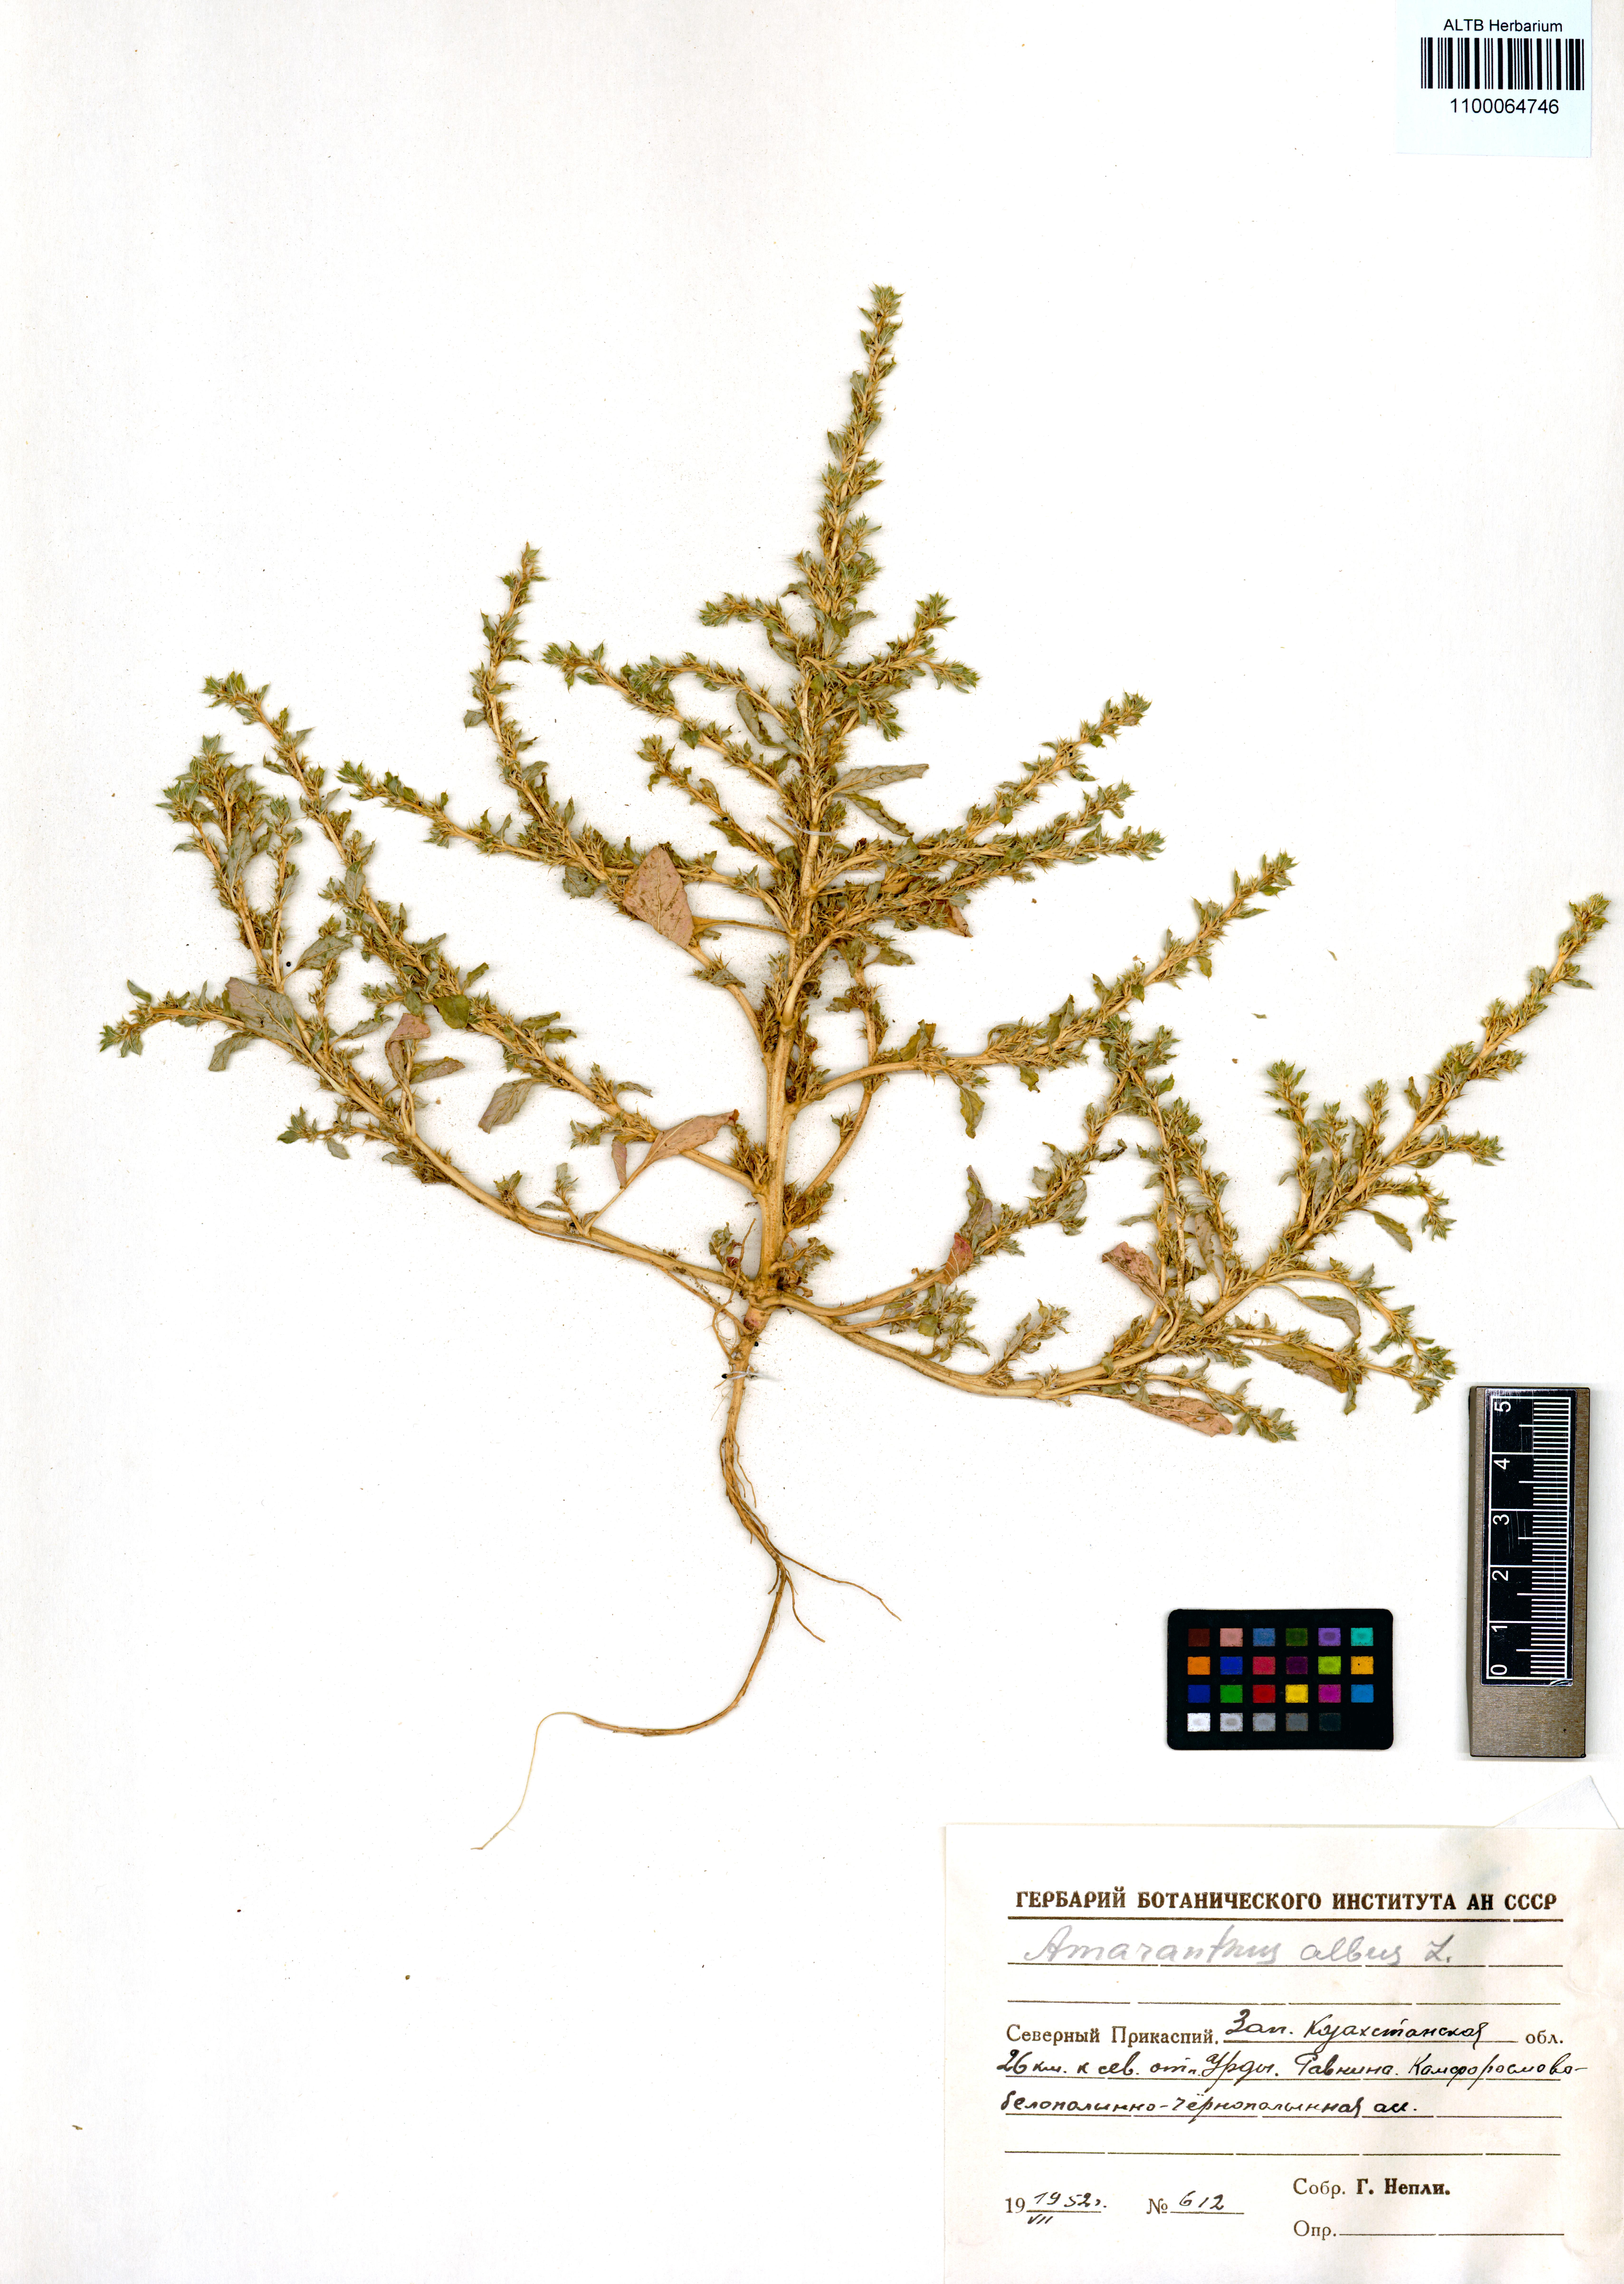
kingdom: Plantae
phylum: Tracheophyta
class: Magnoliopsida
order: Caryophyllales
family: Amaranthaceae
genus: Amaranthus
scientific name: Amaranthus albus
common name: White pigweed
